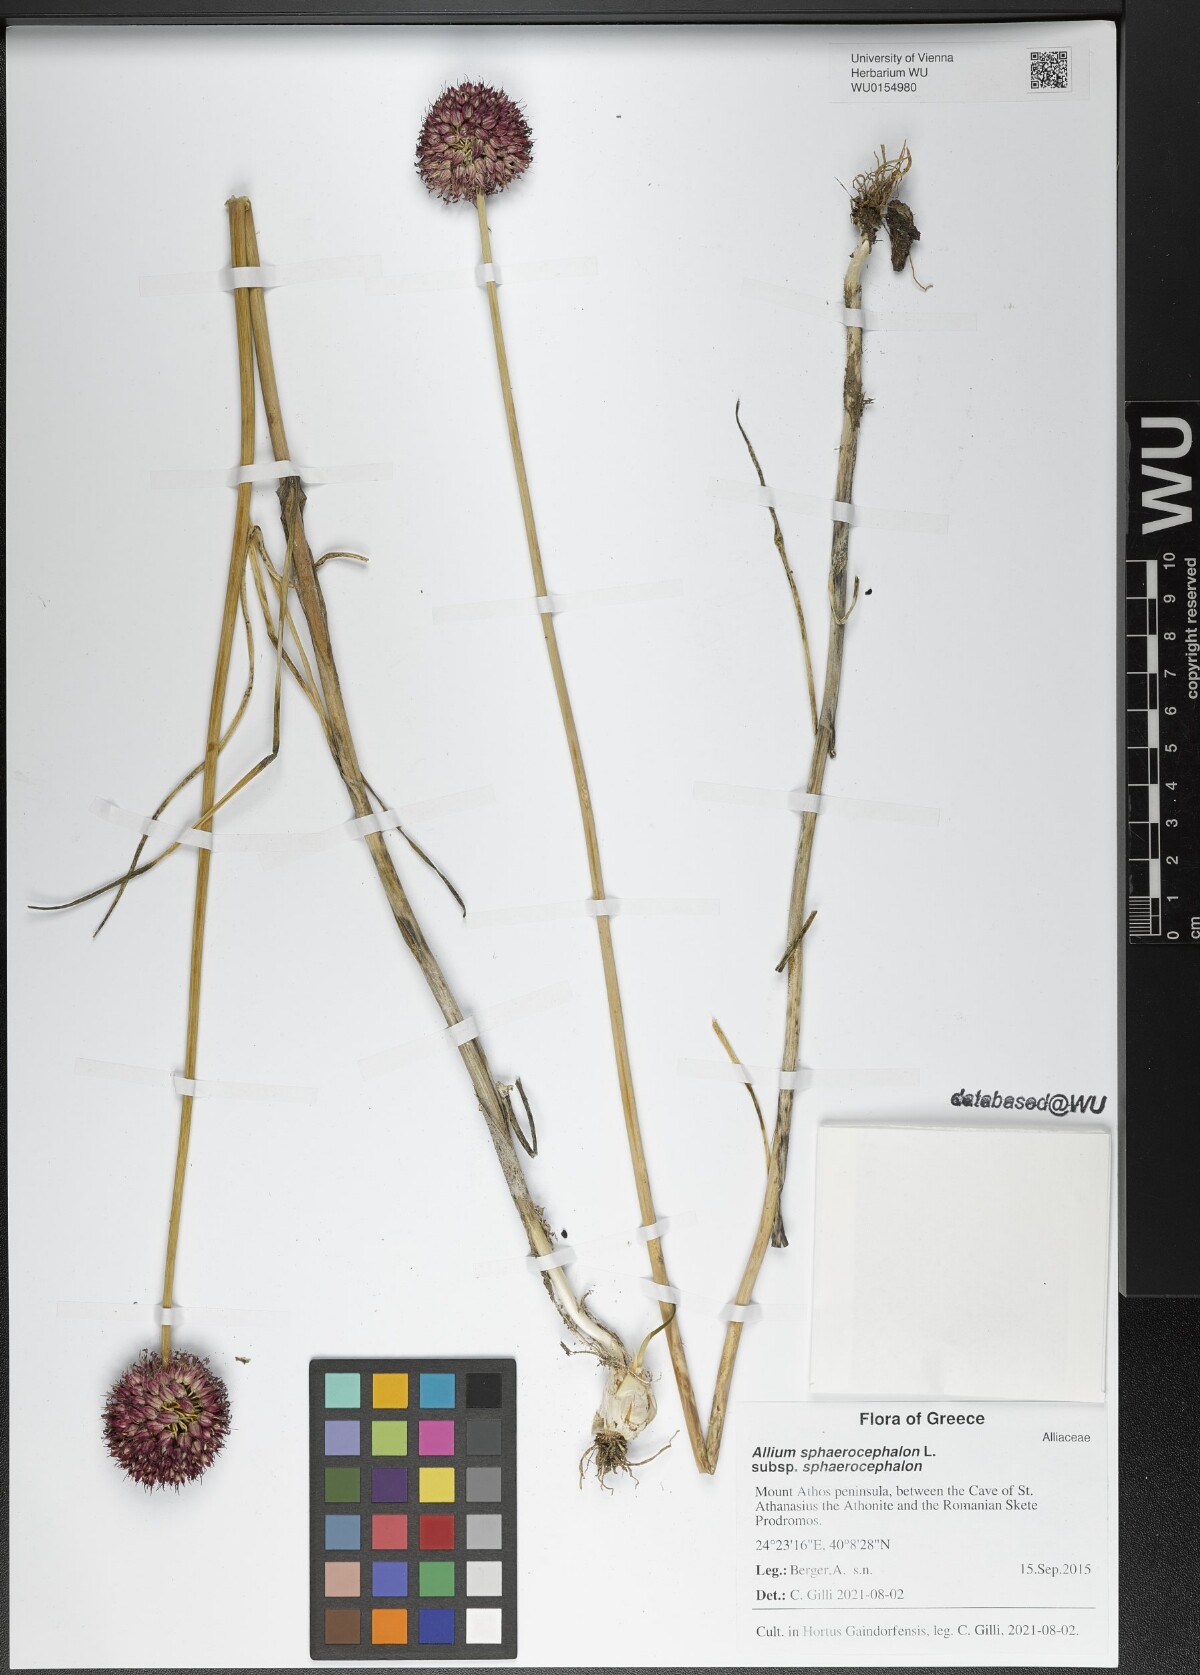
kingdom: Plantae
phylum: Tracheophyta
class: Liliopsida
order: Asparagales
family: Amaryllidaceae
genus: Allium
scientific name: Allium sphaerocephalon
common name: Round-headed leek
